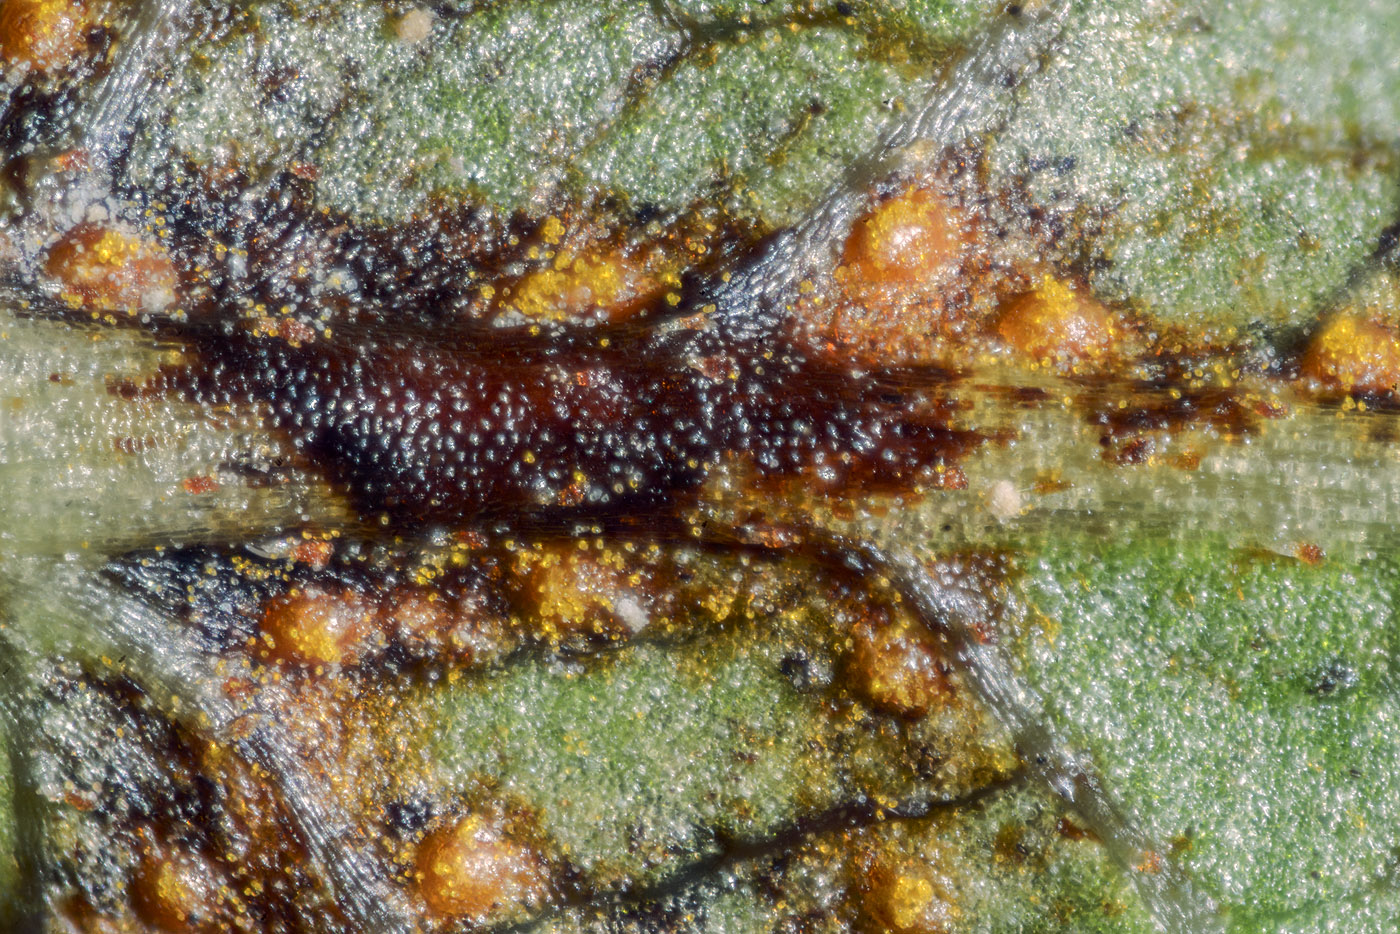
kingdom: Fungi
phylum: Basidiomycota
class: Pucciniomycetes
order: Pucciniales
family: Pucciniastraceae
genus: Naohidemyces
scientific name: Naohidemyces vaccinii
